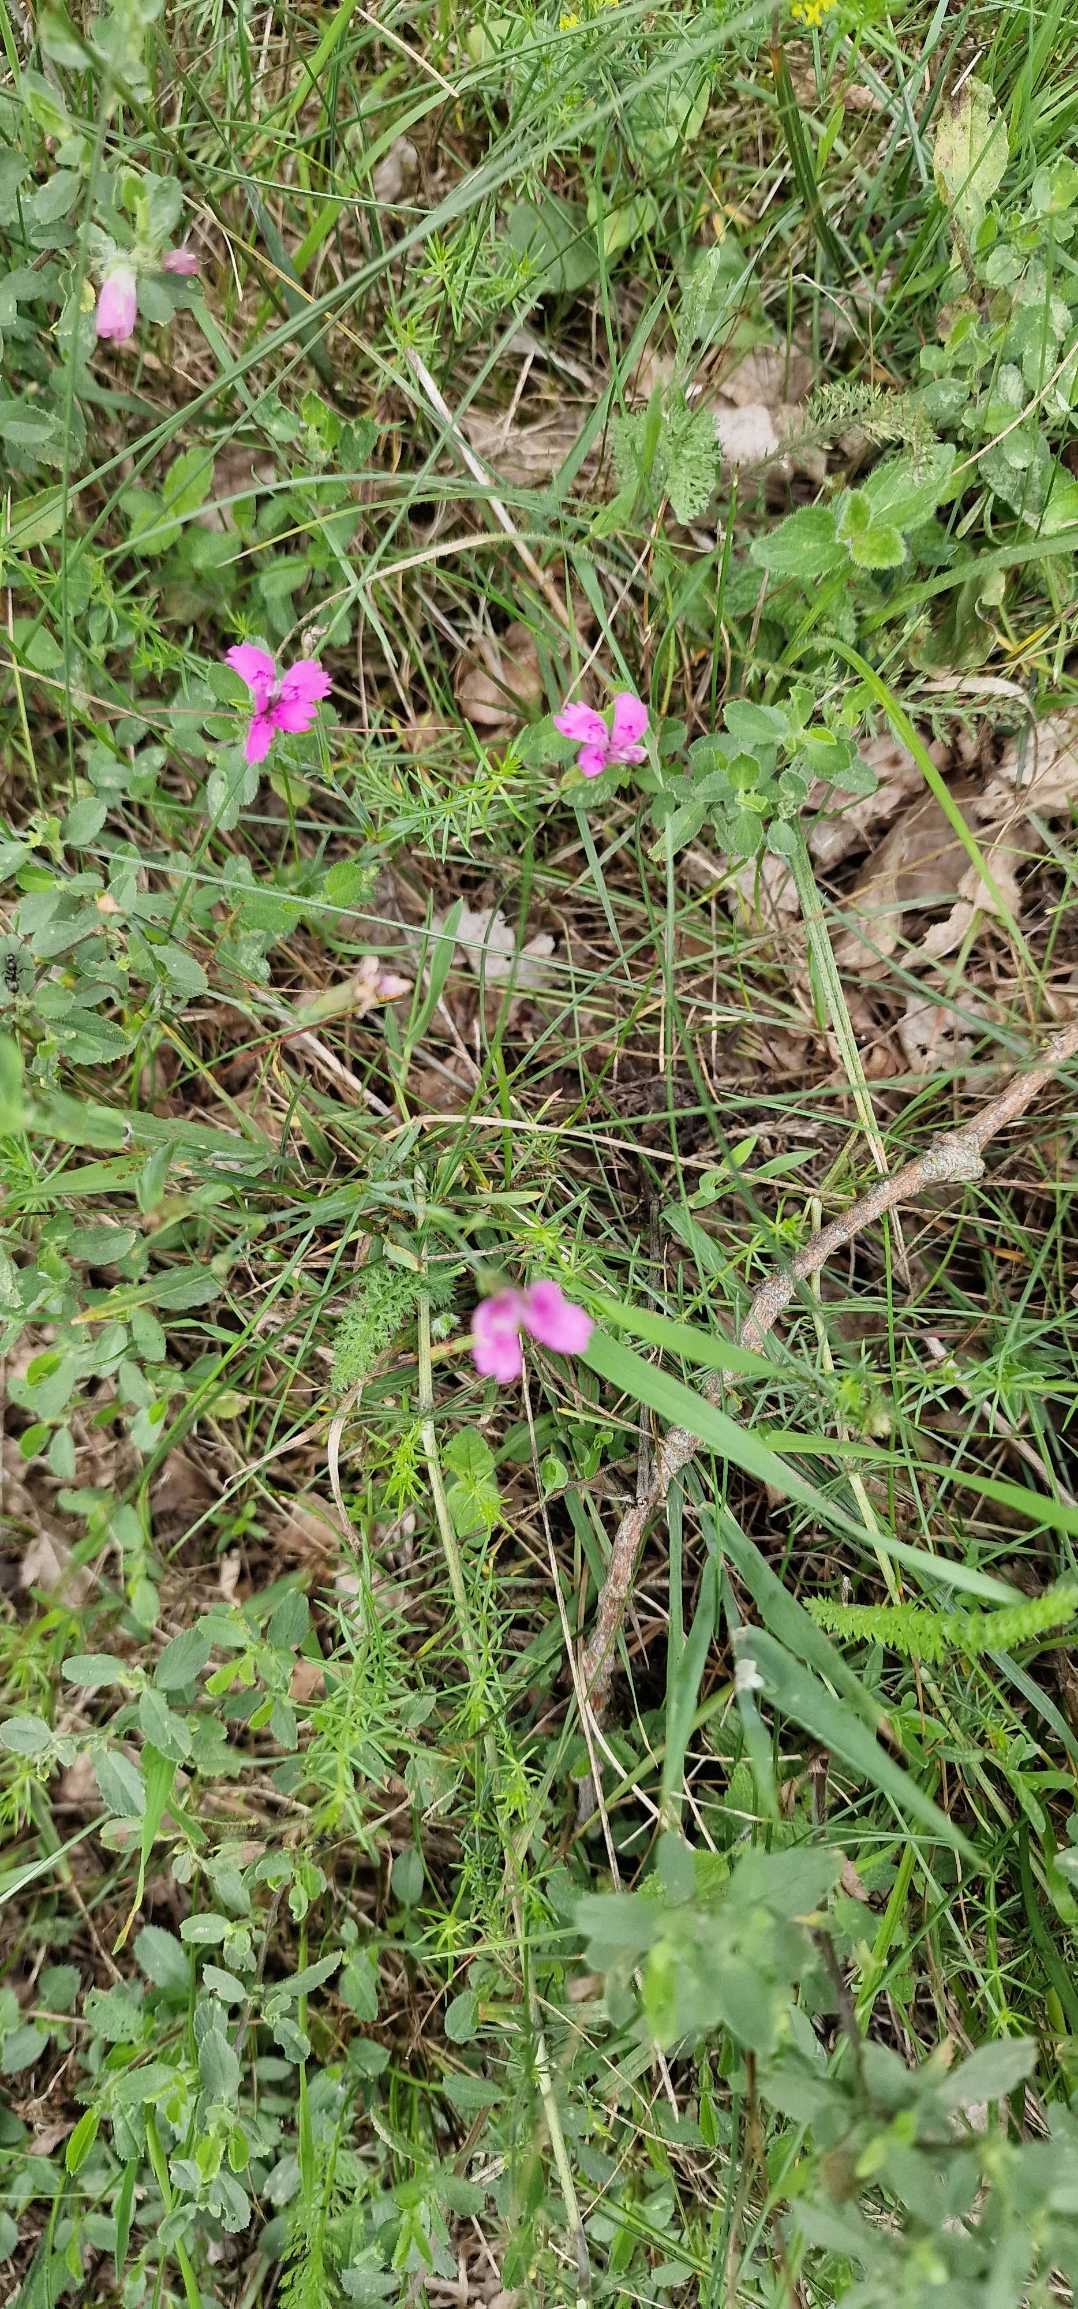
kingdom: Plantae
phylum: Tracheophyta
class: Magnoliopsida
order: Caryophyllales
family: Caryophyllaceae
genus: Dianthus
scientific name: Dianthus deltoides
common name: Bakke-nellike
